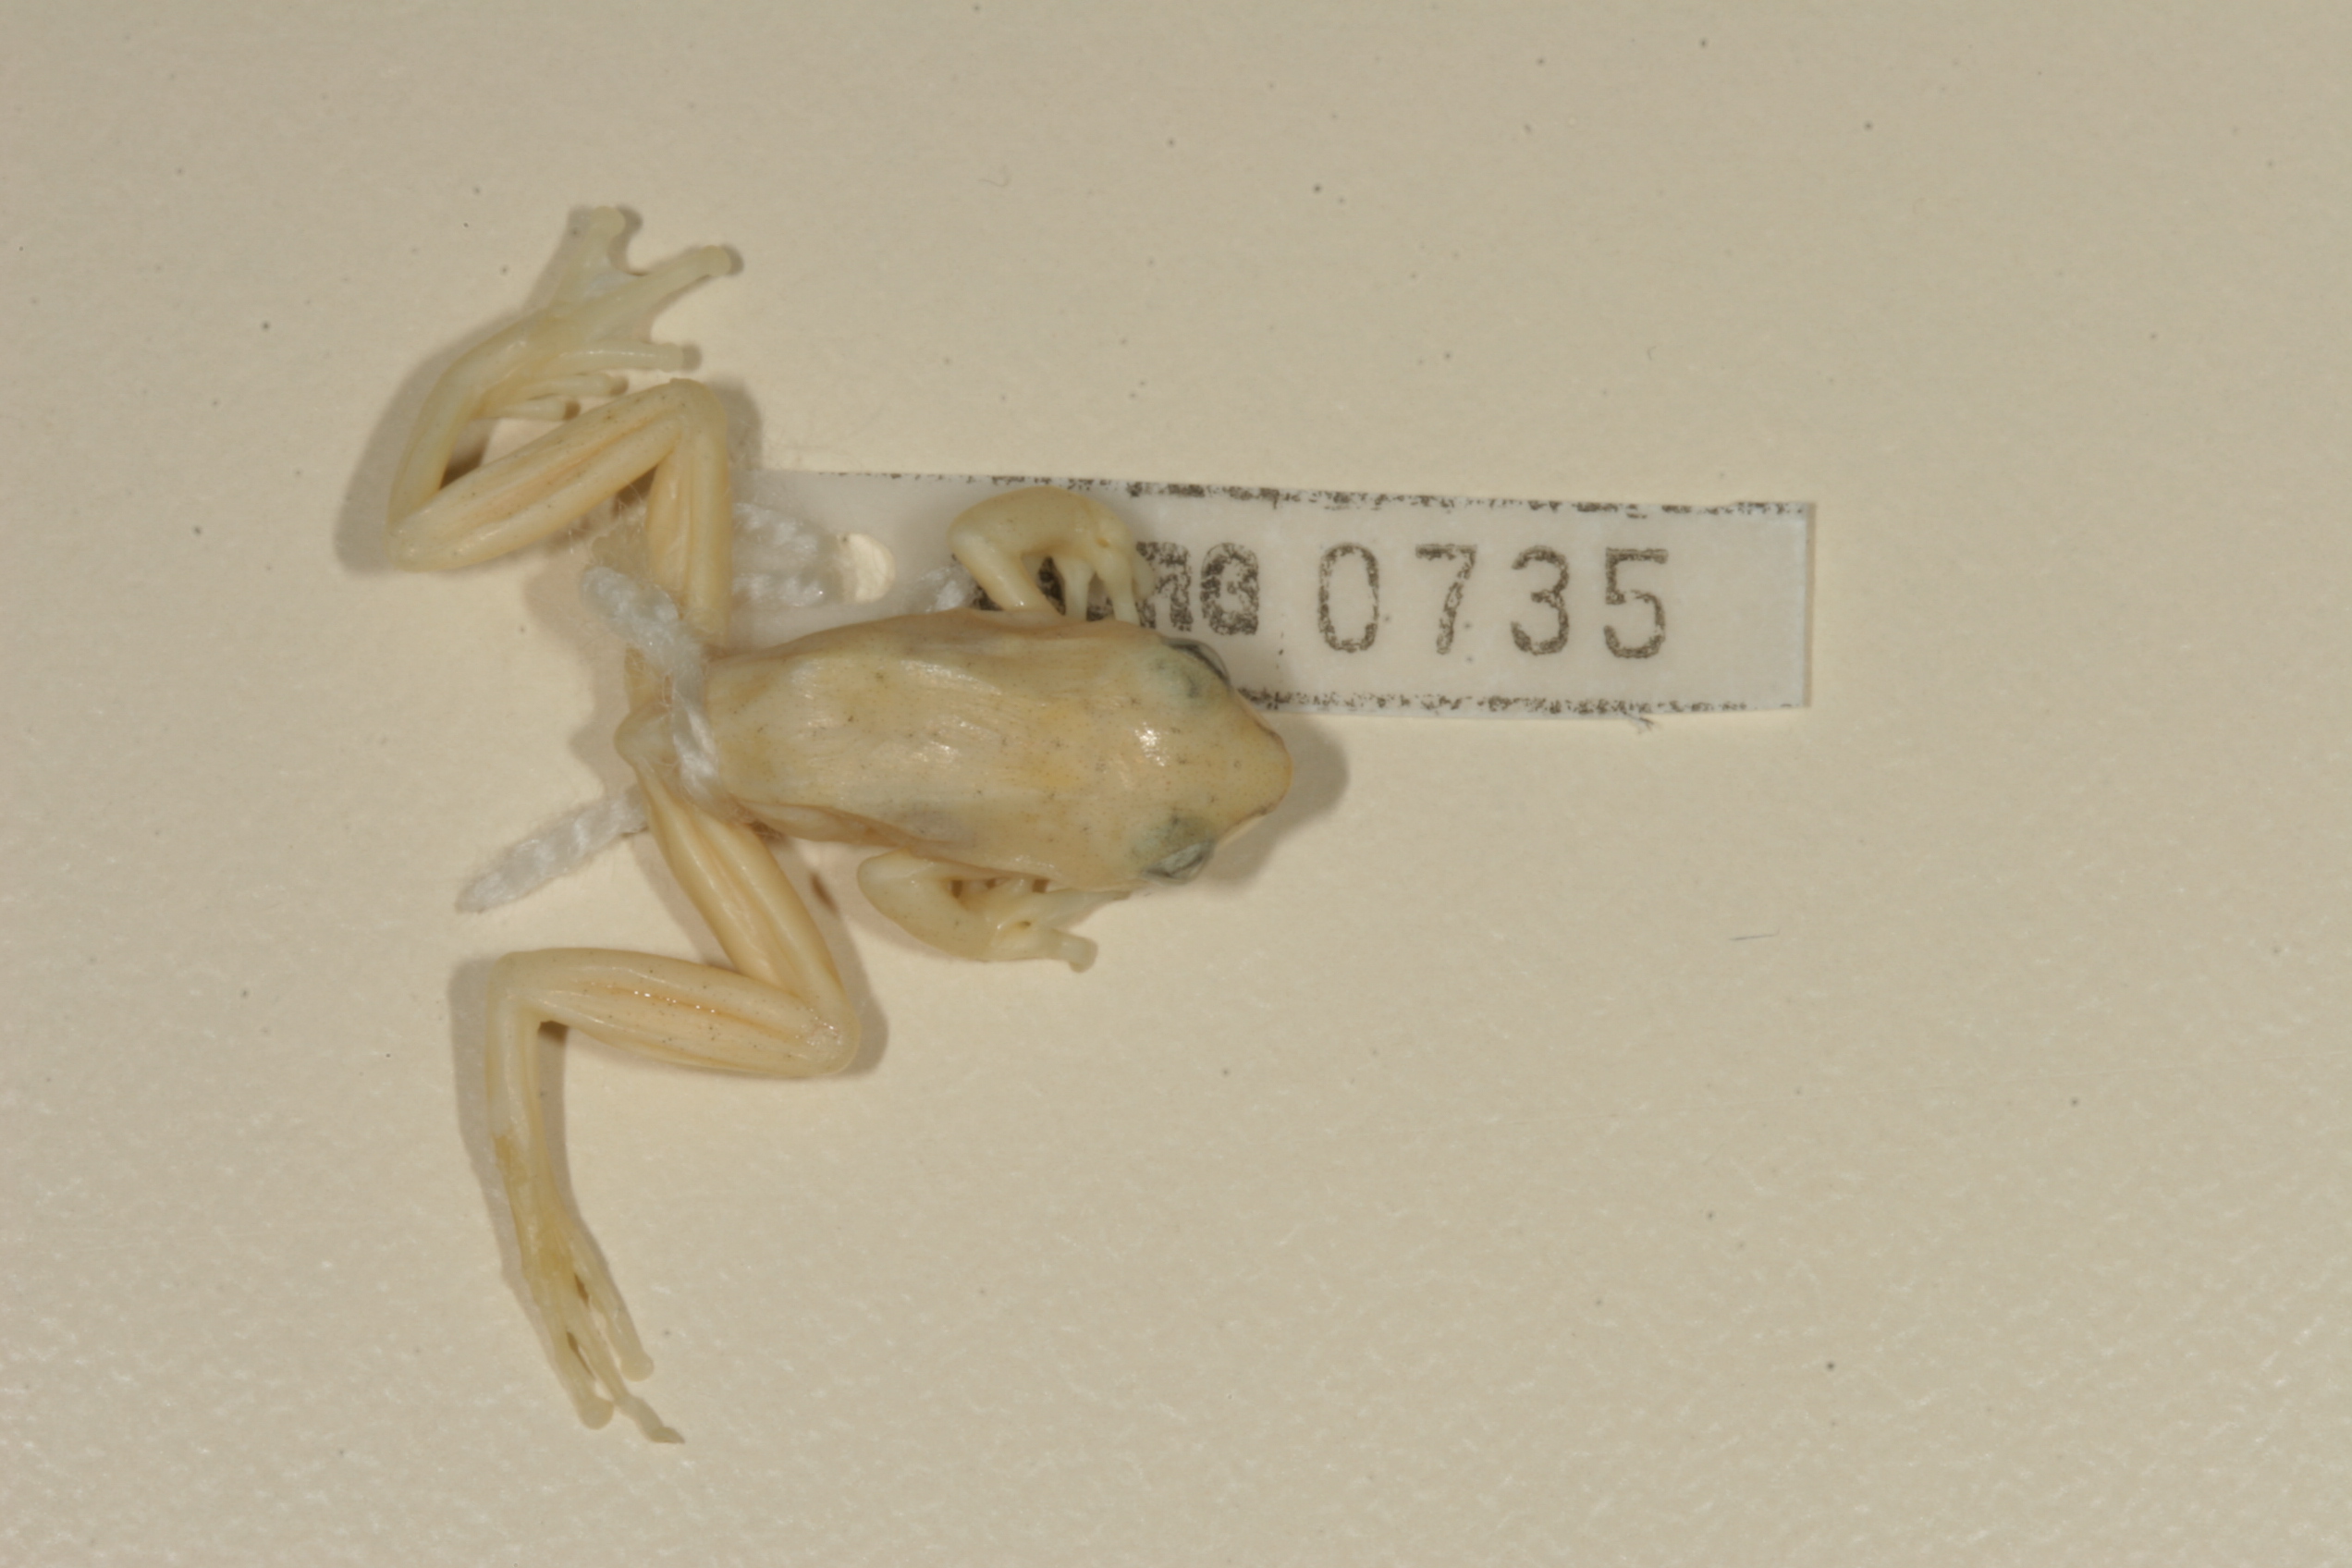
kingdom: Animalia
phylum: Chordata
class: Amphibia
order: Anura
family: Hyperoliidae
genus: Hyperolius
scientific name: Hyperolius marmoratus
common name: Painted reed frog
